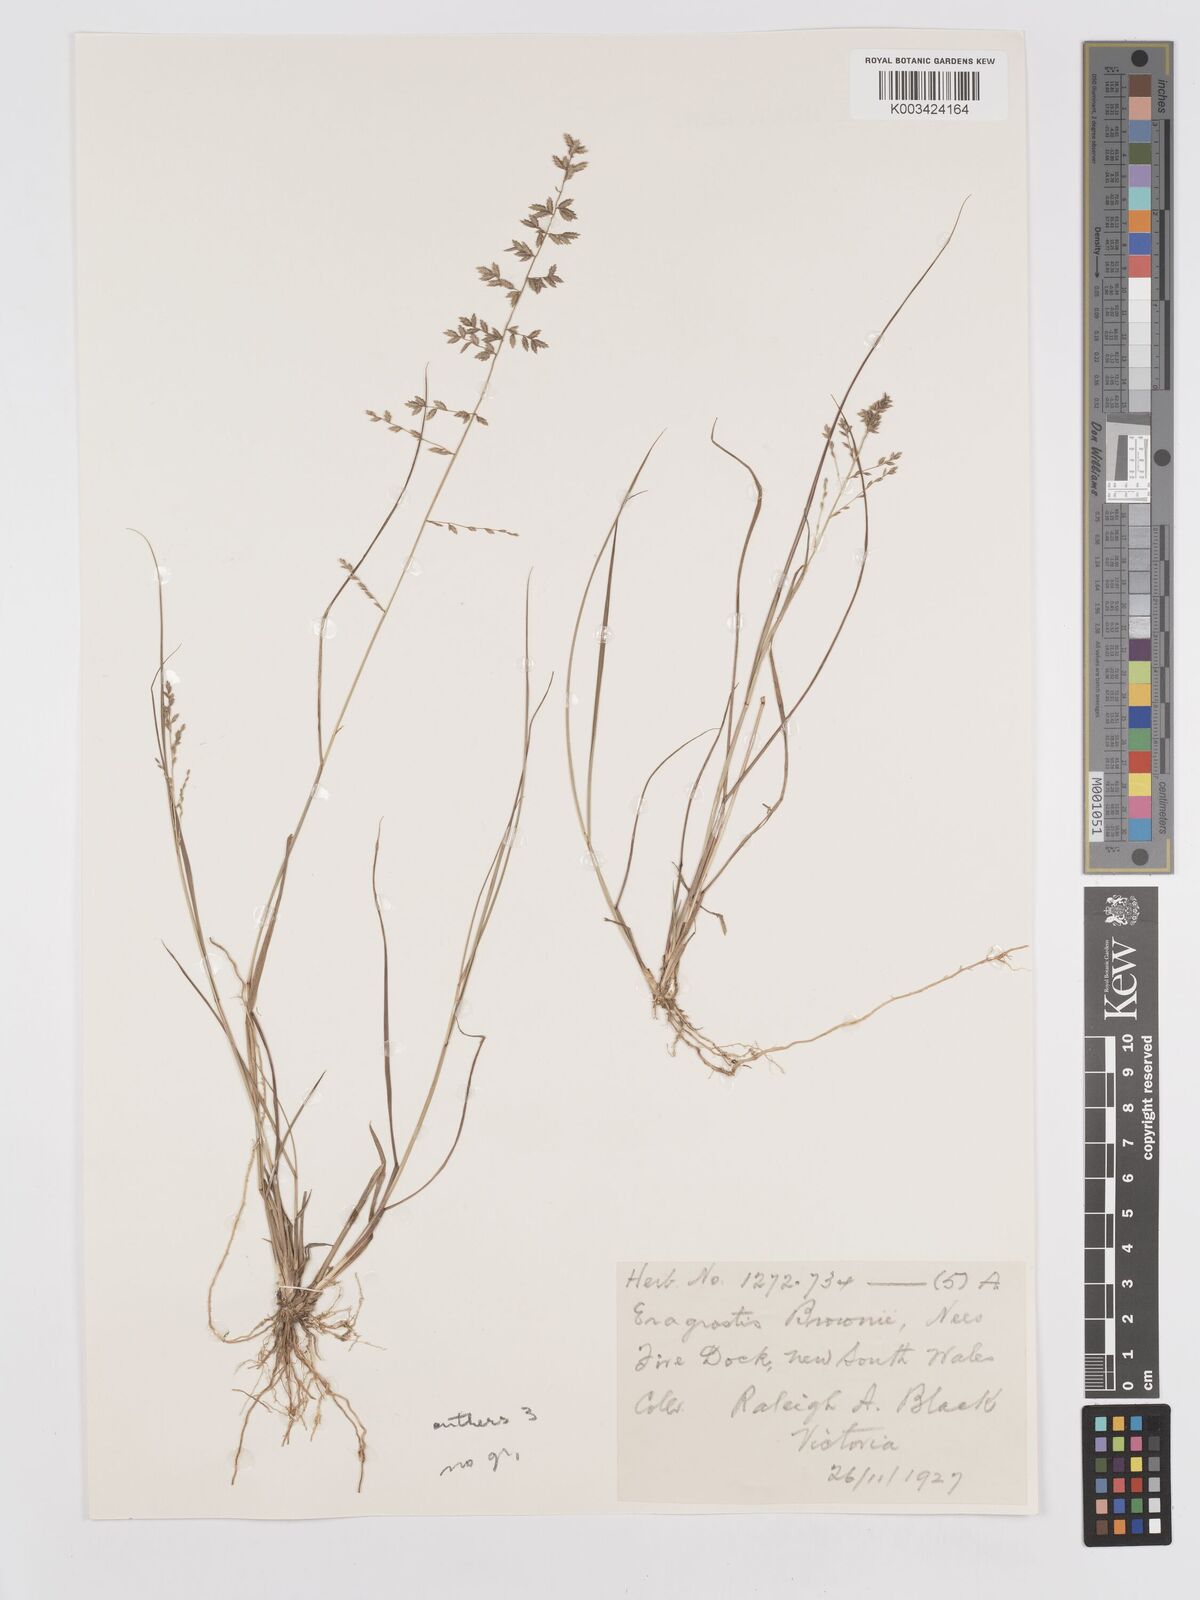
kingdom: Plantae
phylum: Tracheophyta
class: Liliopsida
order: Poales
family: Poaceae
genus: Eragrostis
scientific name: Eragrostis brownii
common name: Lovegrass
